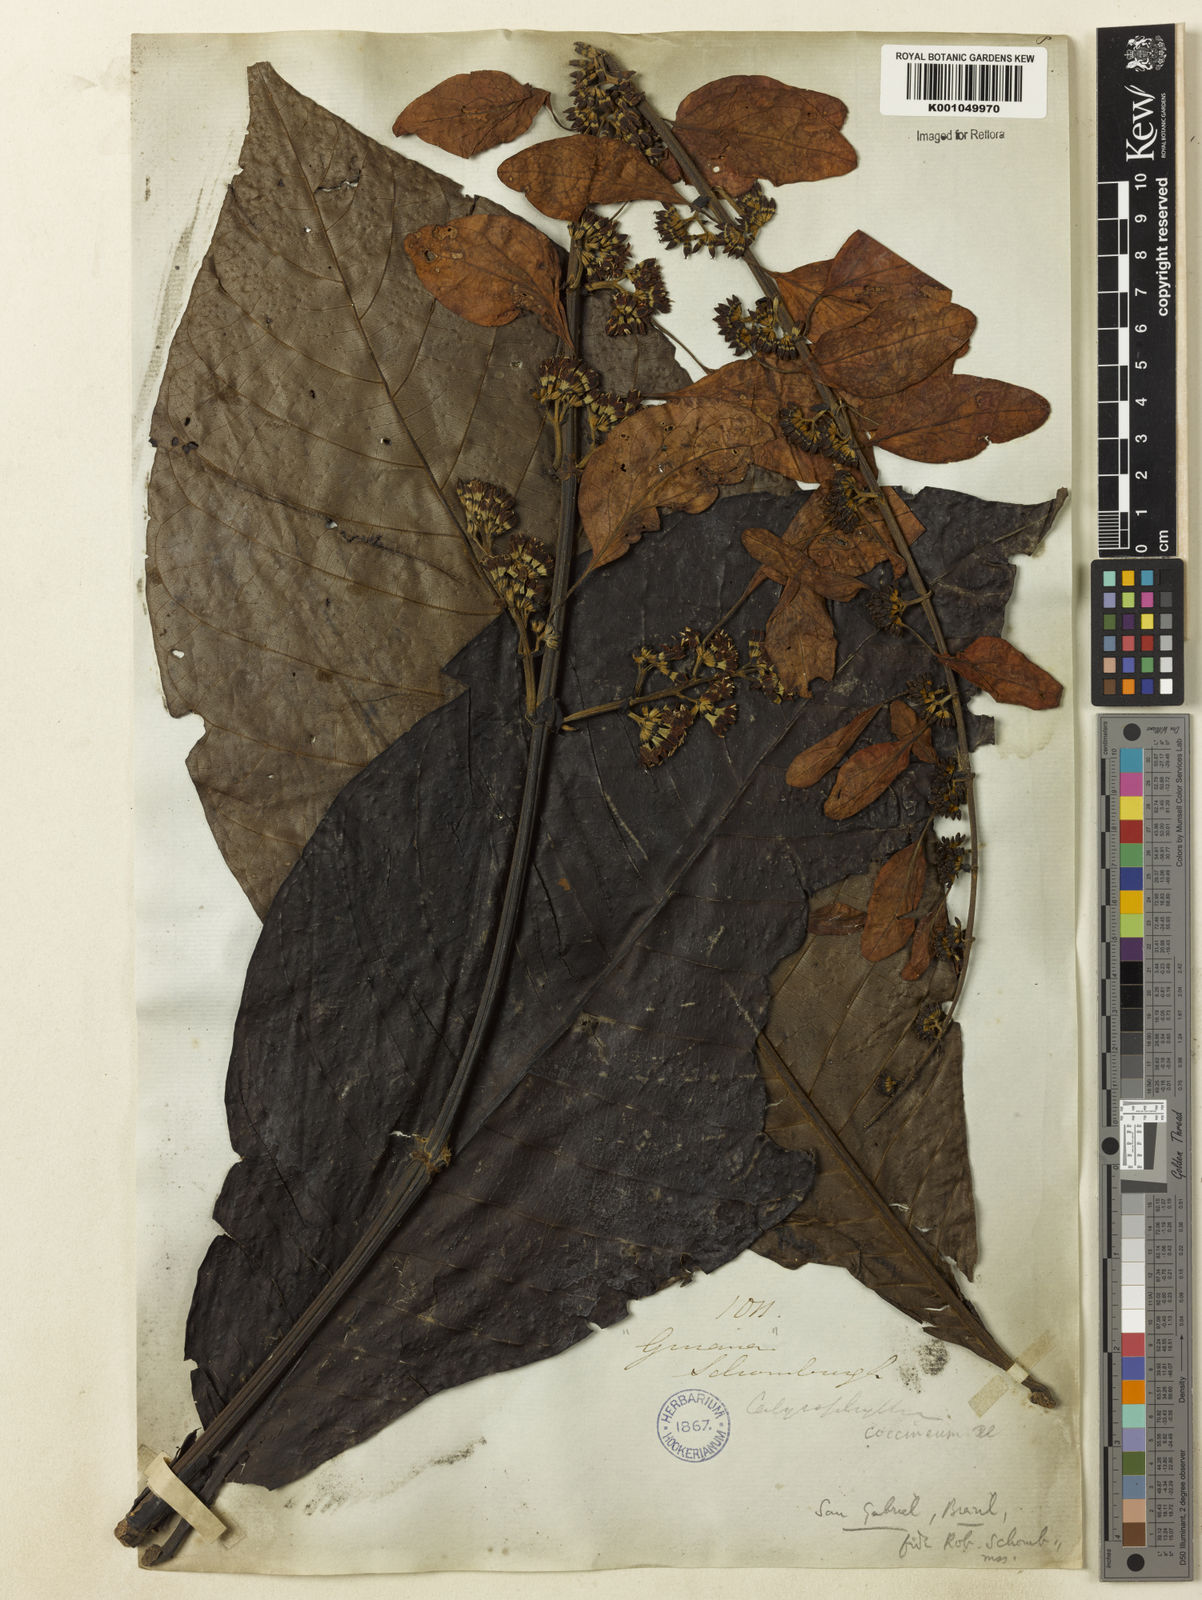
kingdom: Plantae
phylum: Tracheophyta
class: Magnoliopsida
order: Gentianales
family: Rubiaceae
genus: Warszewiczia
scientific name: Warszewiczia coccinea
